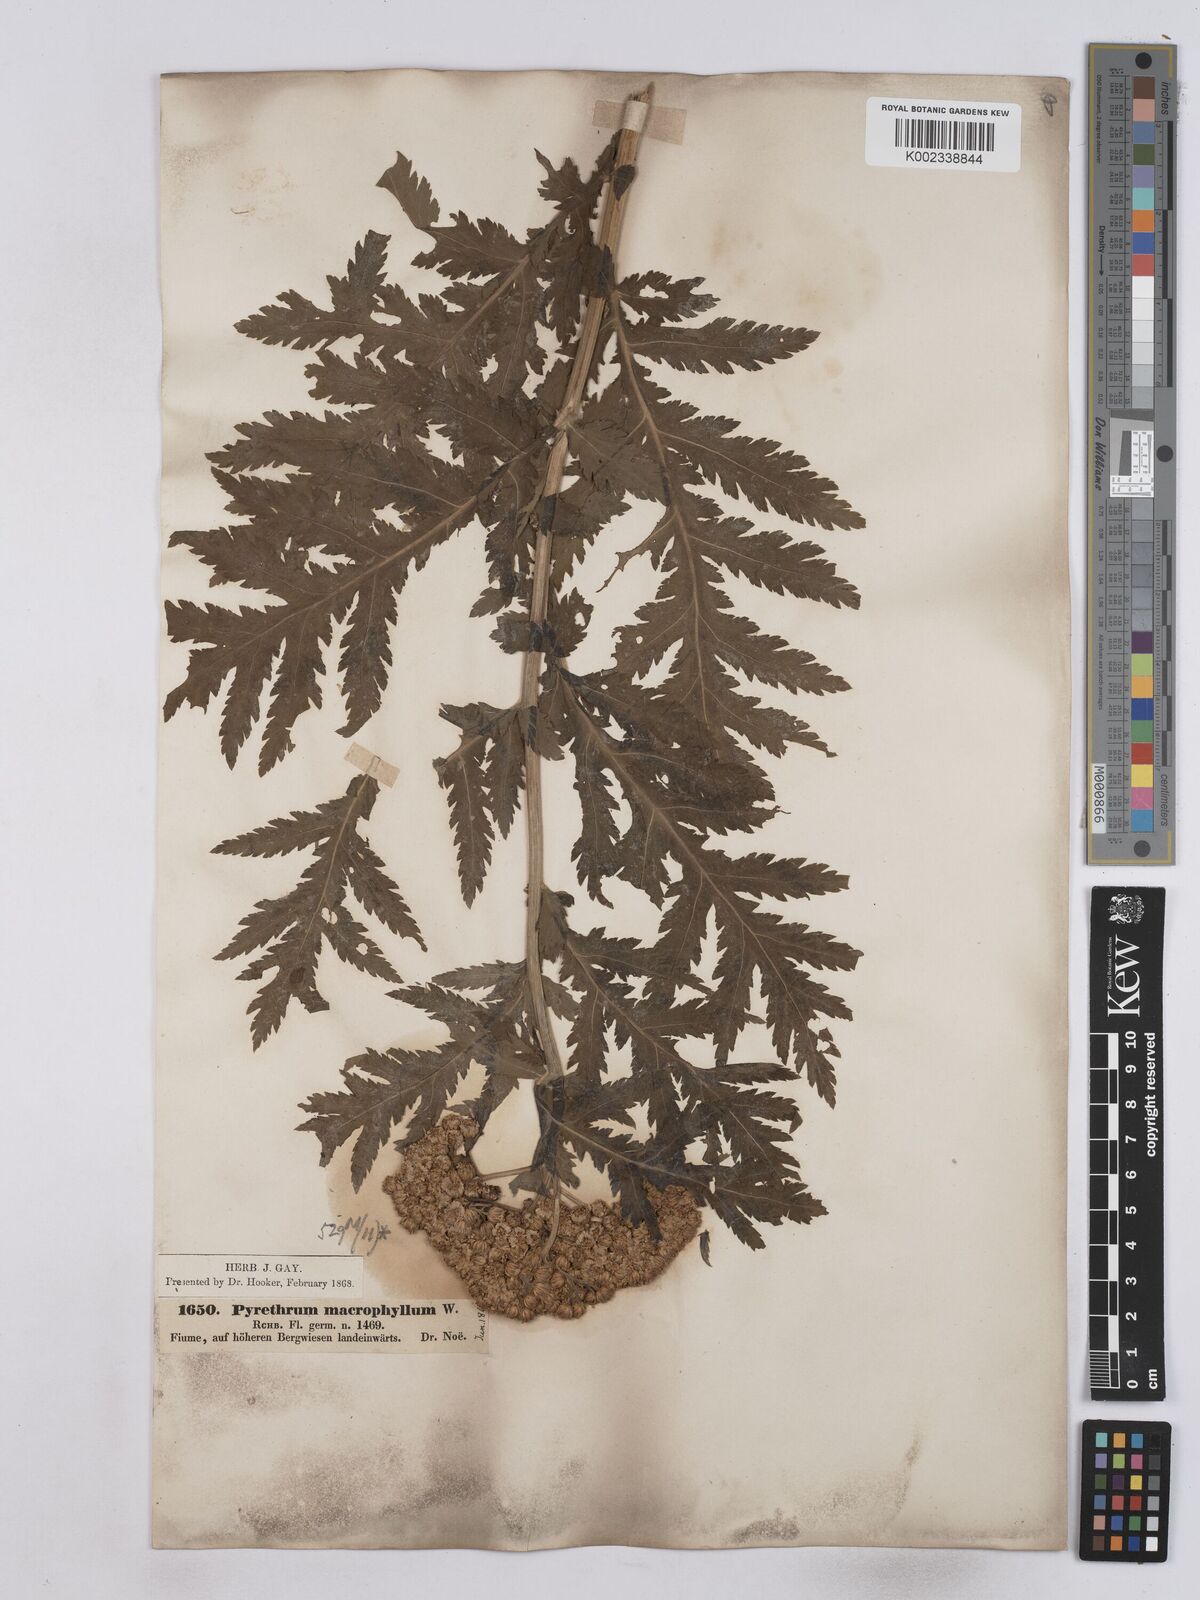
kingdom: Plantae
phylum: Tracheophyta
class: Magnoliopsida
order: Asterales
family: Asteraceae
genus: Tanacetum
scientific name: Tanacetum macrophyllum
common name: Rayed tansy
